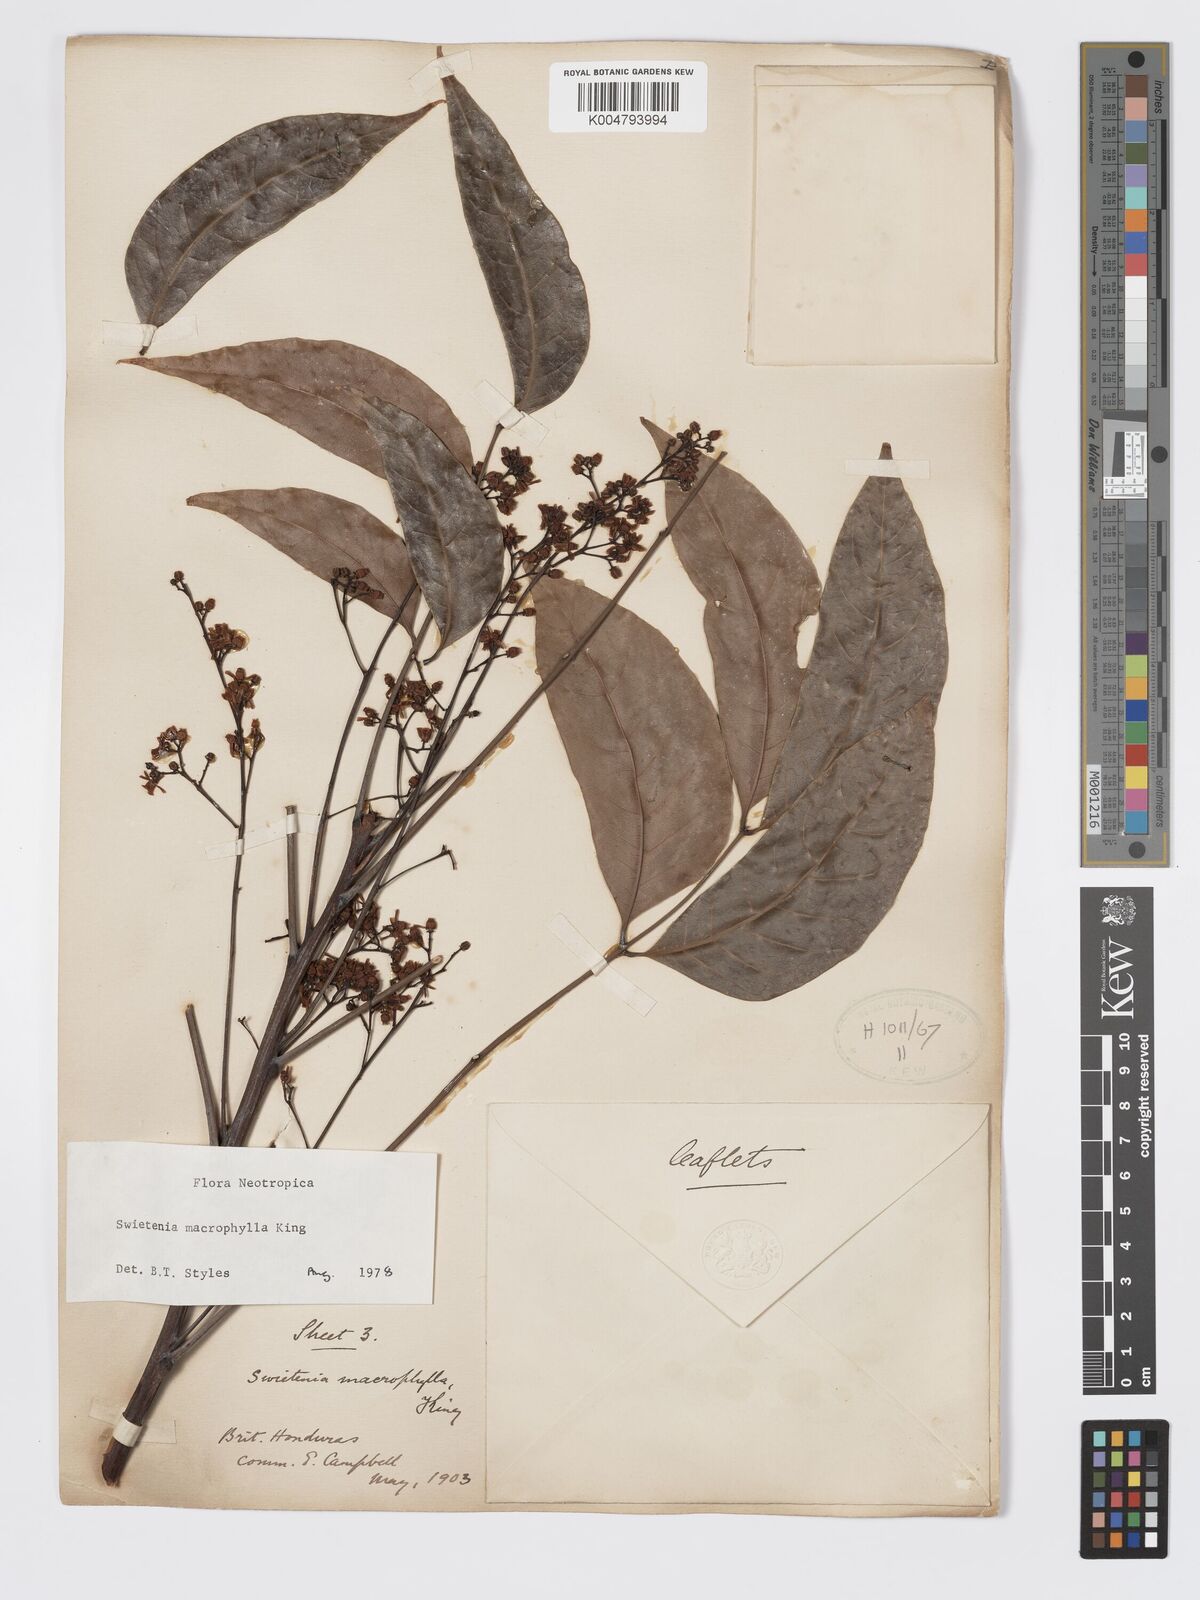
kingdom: Plantae
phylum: Tracheophyta
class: Magnoliopsida
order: Sapindales
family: Meliaceae
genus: Swietenia
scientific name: Swietenia macrophylla
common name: Honduras mahogany
